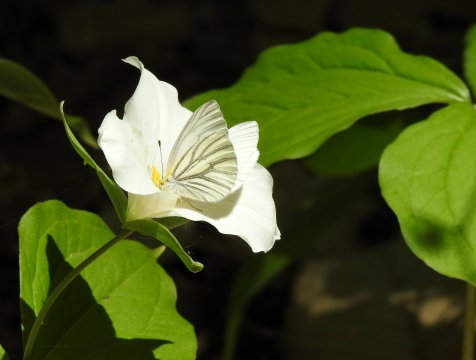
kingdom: Animalia
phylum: Arthropoda
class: Insecta
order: Lepidoptera
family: Pieridae
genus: Pieris
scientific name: Pieris oleracea
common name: Mustard White
